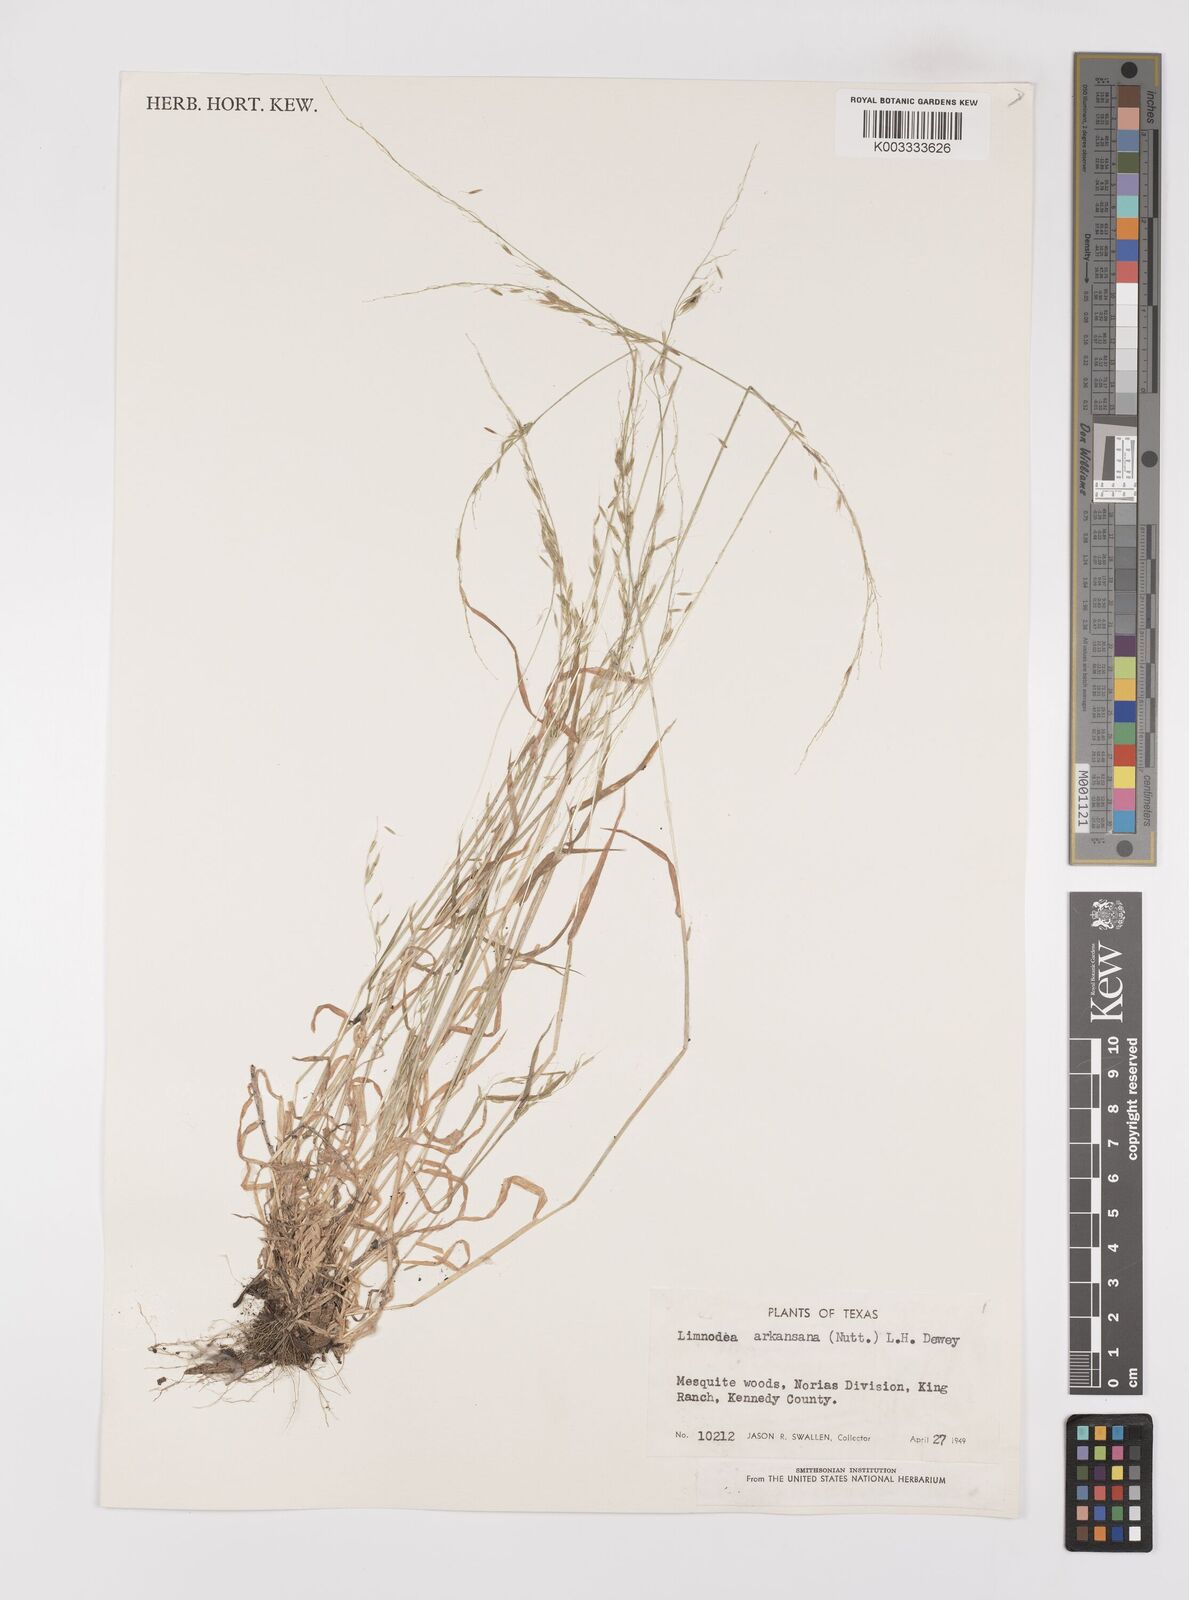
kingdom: Plantae
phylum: Tracheophyta
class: Liliopsida
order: Poales
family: Poaceae
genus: Limnodea
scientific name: Limnodea arkansana
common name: Ozark-grass
